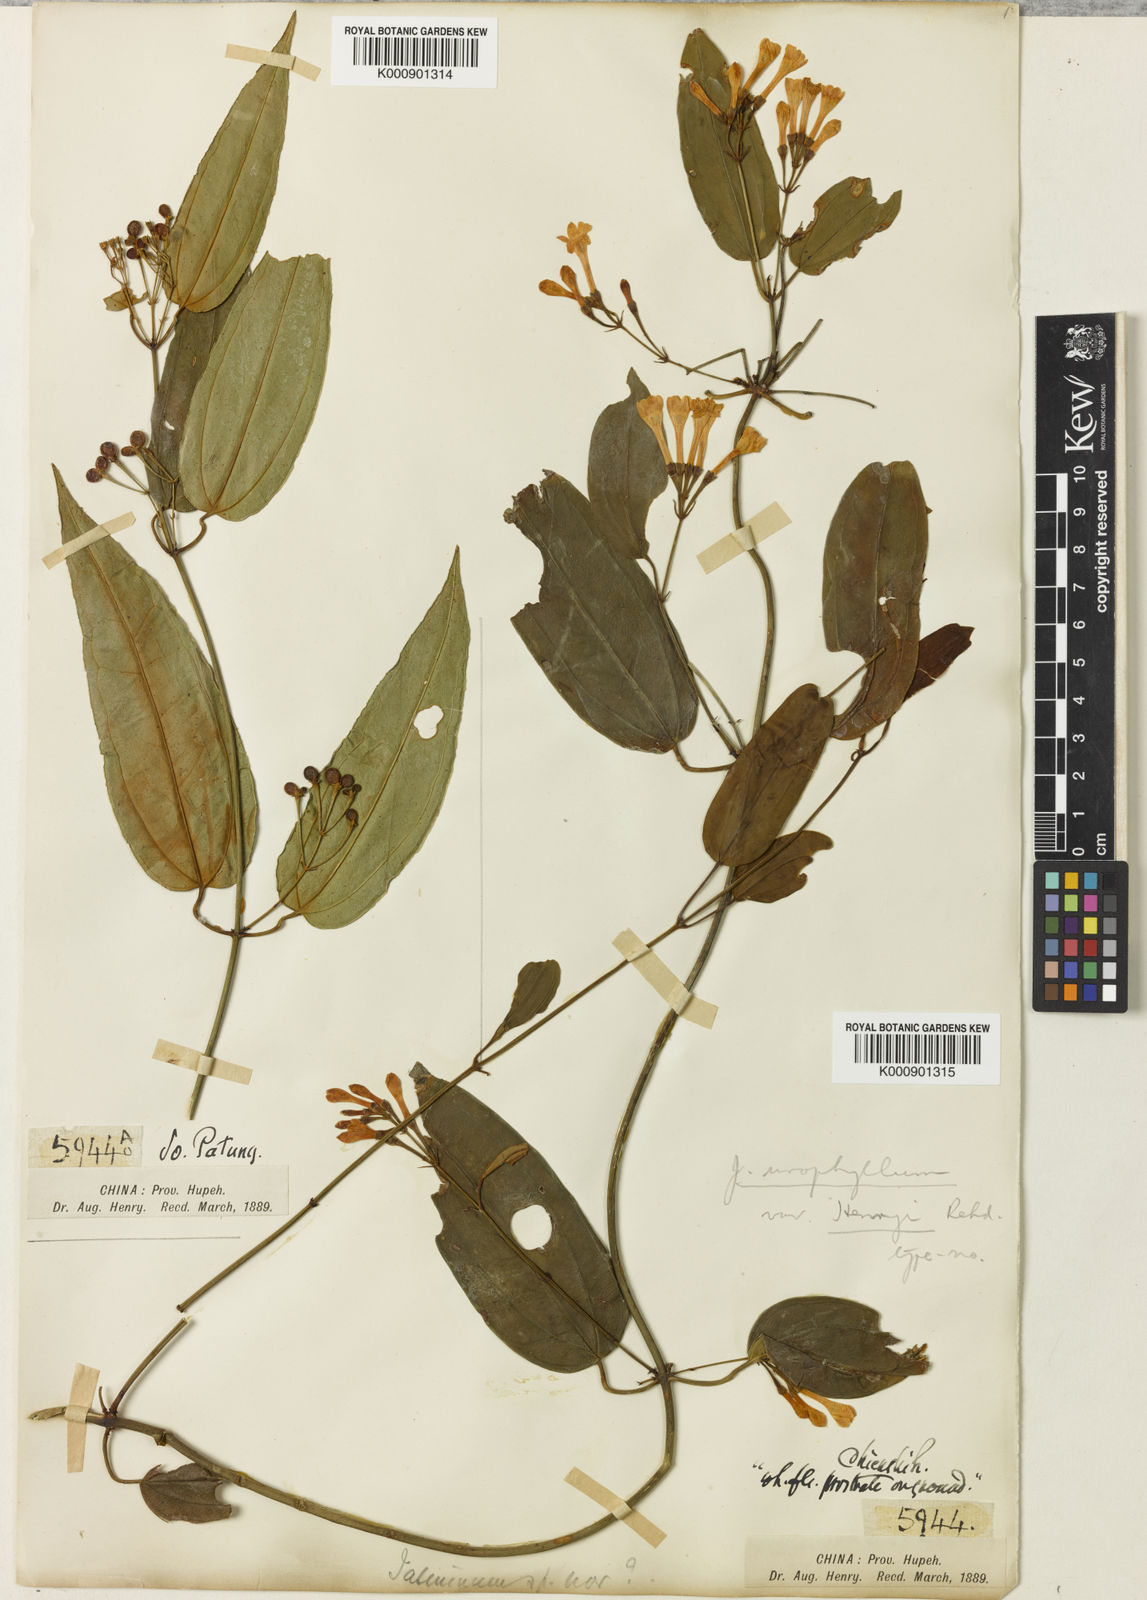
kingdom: Plantae
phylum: Tracheophyta
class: Magnoliopsida
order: Lamiales
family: Oleaceae
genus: Jasminum
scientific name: Jasminum urophyllum
